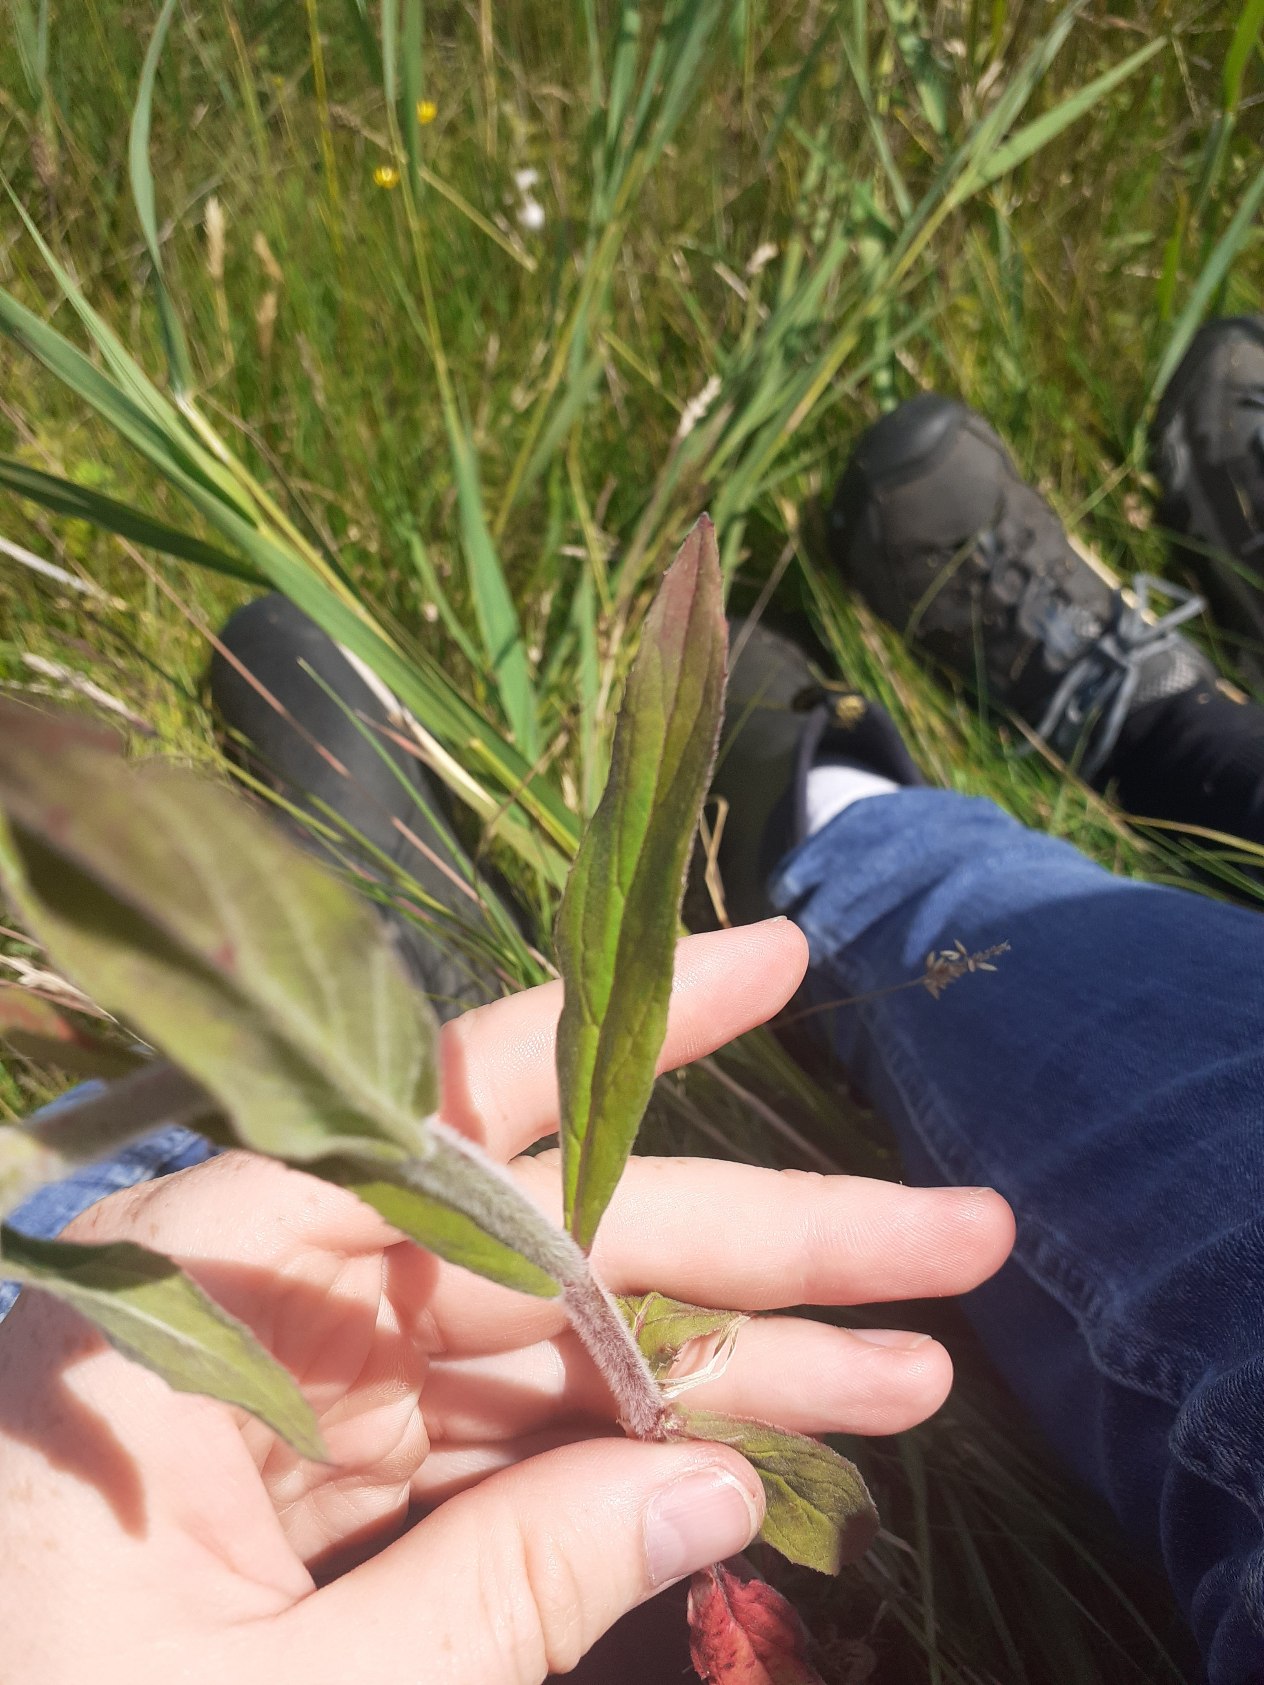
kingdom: Plantae
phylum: Tracheophyta
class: Magnoliopsida
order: Myrtales
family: Onagraceae
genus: Epilobium
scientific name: Epilobium parviflorum
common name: Dunet dueurt
